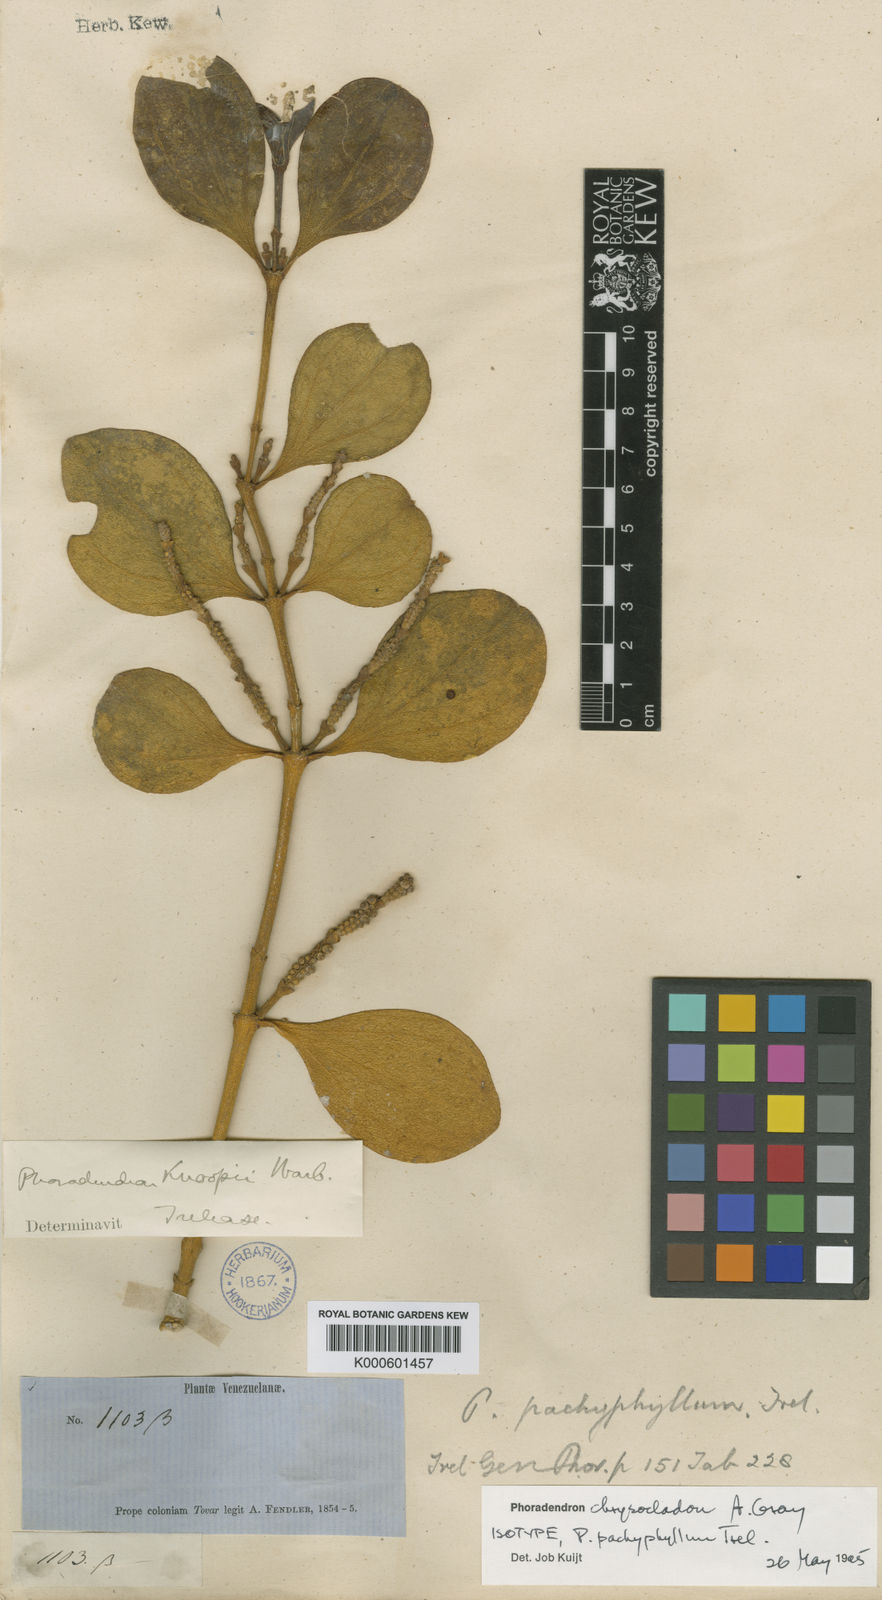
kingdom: Plantae
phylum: Tracheophyta
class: Magnoliopsida
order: Santalales
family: Viscaceae
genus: Phoradendron
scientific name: Phoradendron chrysocladon
